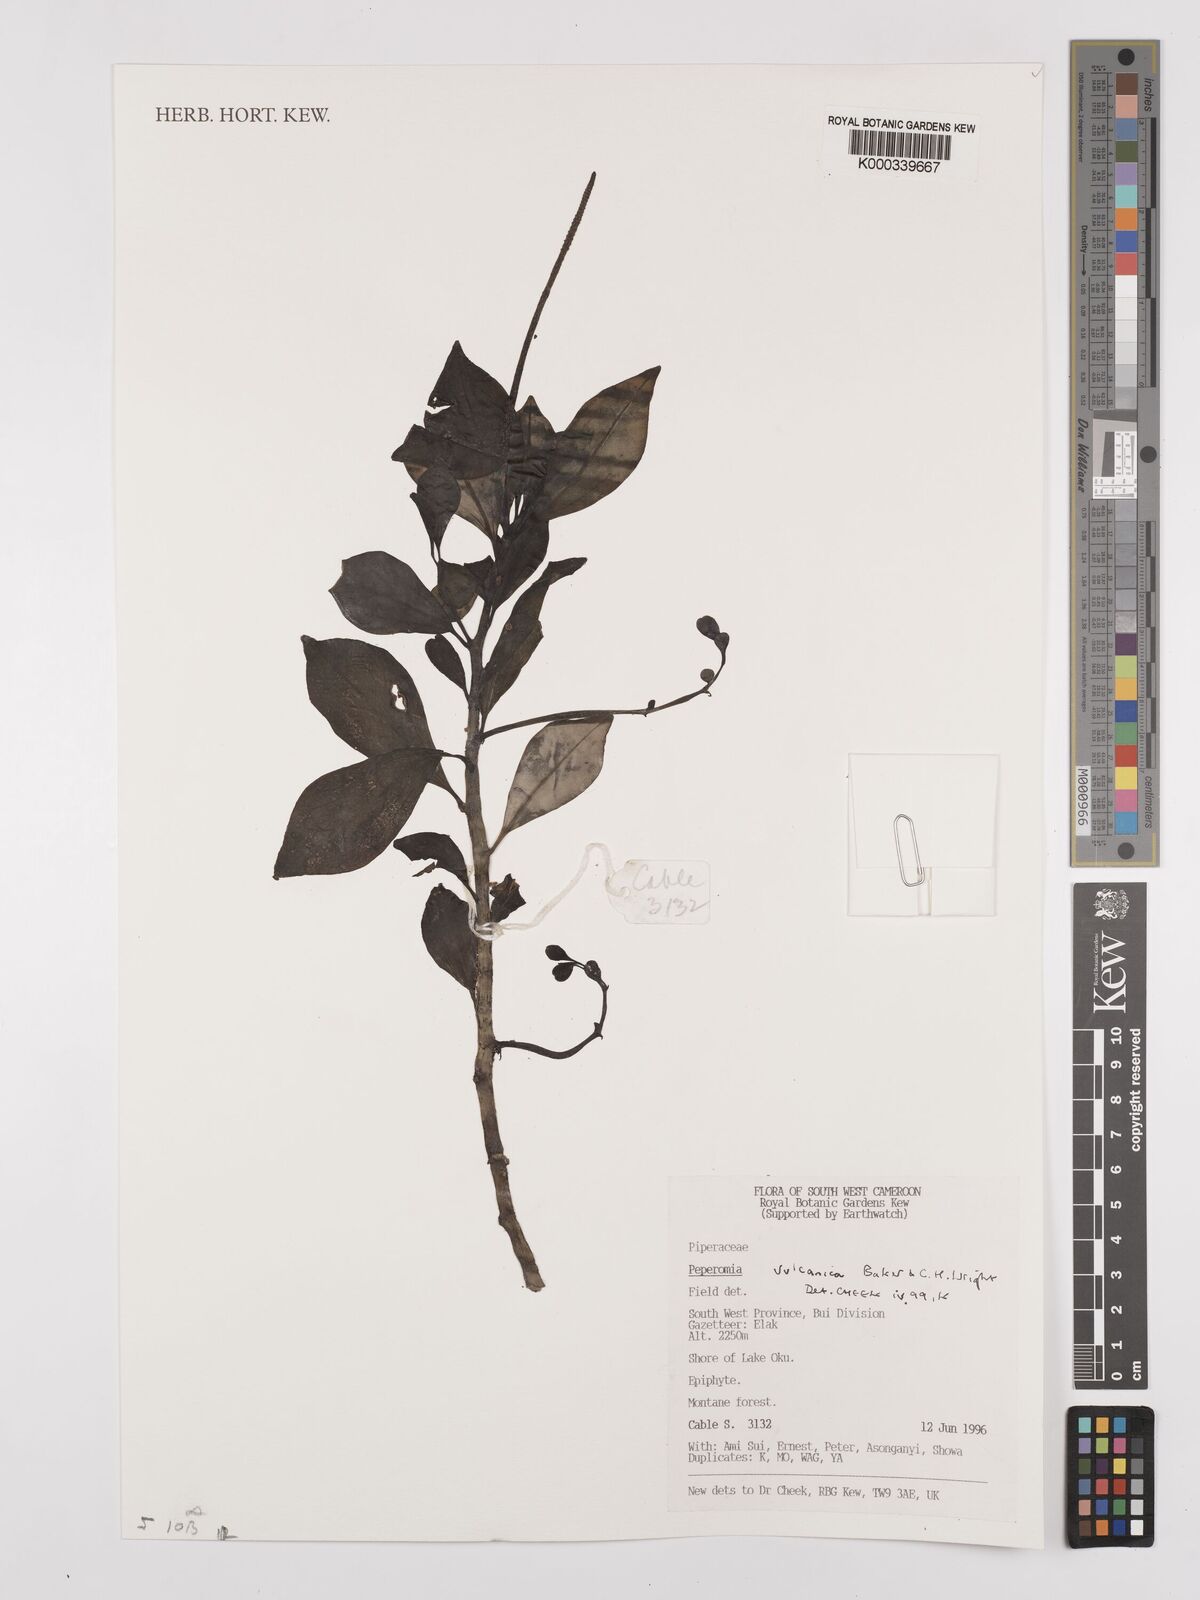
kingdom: Plantae
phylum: Tracheophyta
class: Magnoliopsida
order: Piperales
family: Piperaceae
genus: Peperomia
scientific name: Peperomia vulcanica
